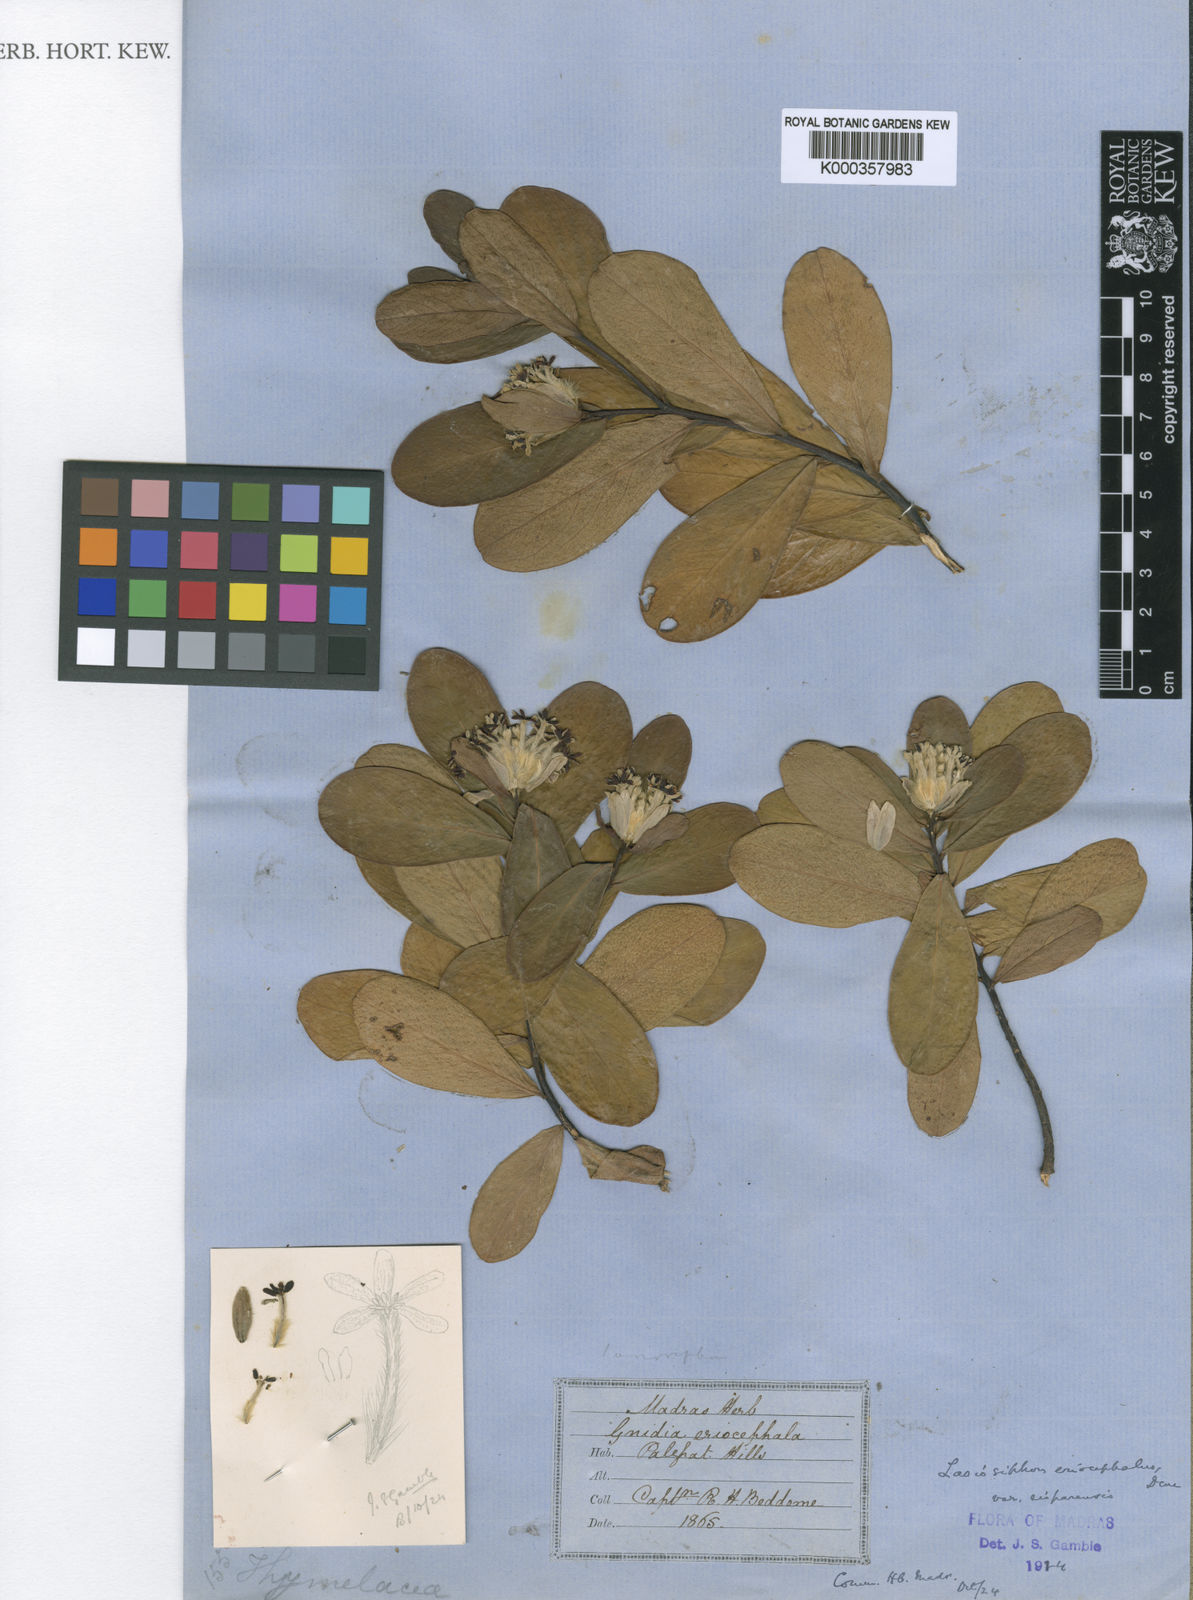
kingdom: Plantae
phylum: Tracheophyta
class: Magnoliopsida
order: Malvales
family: Thymelaeaceae
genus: Gnidia
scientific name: Gnidia glauca
